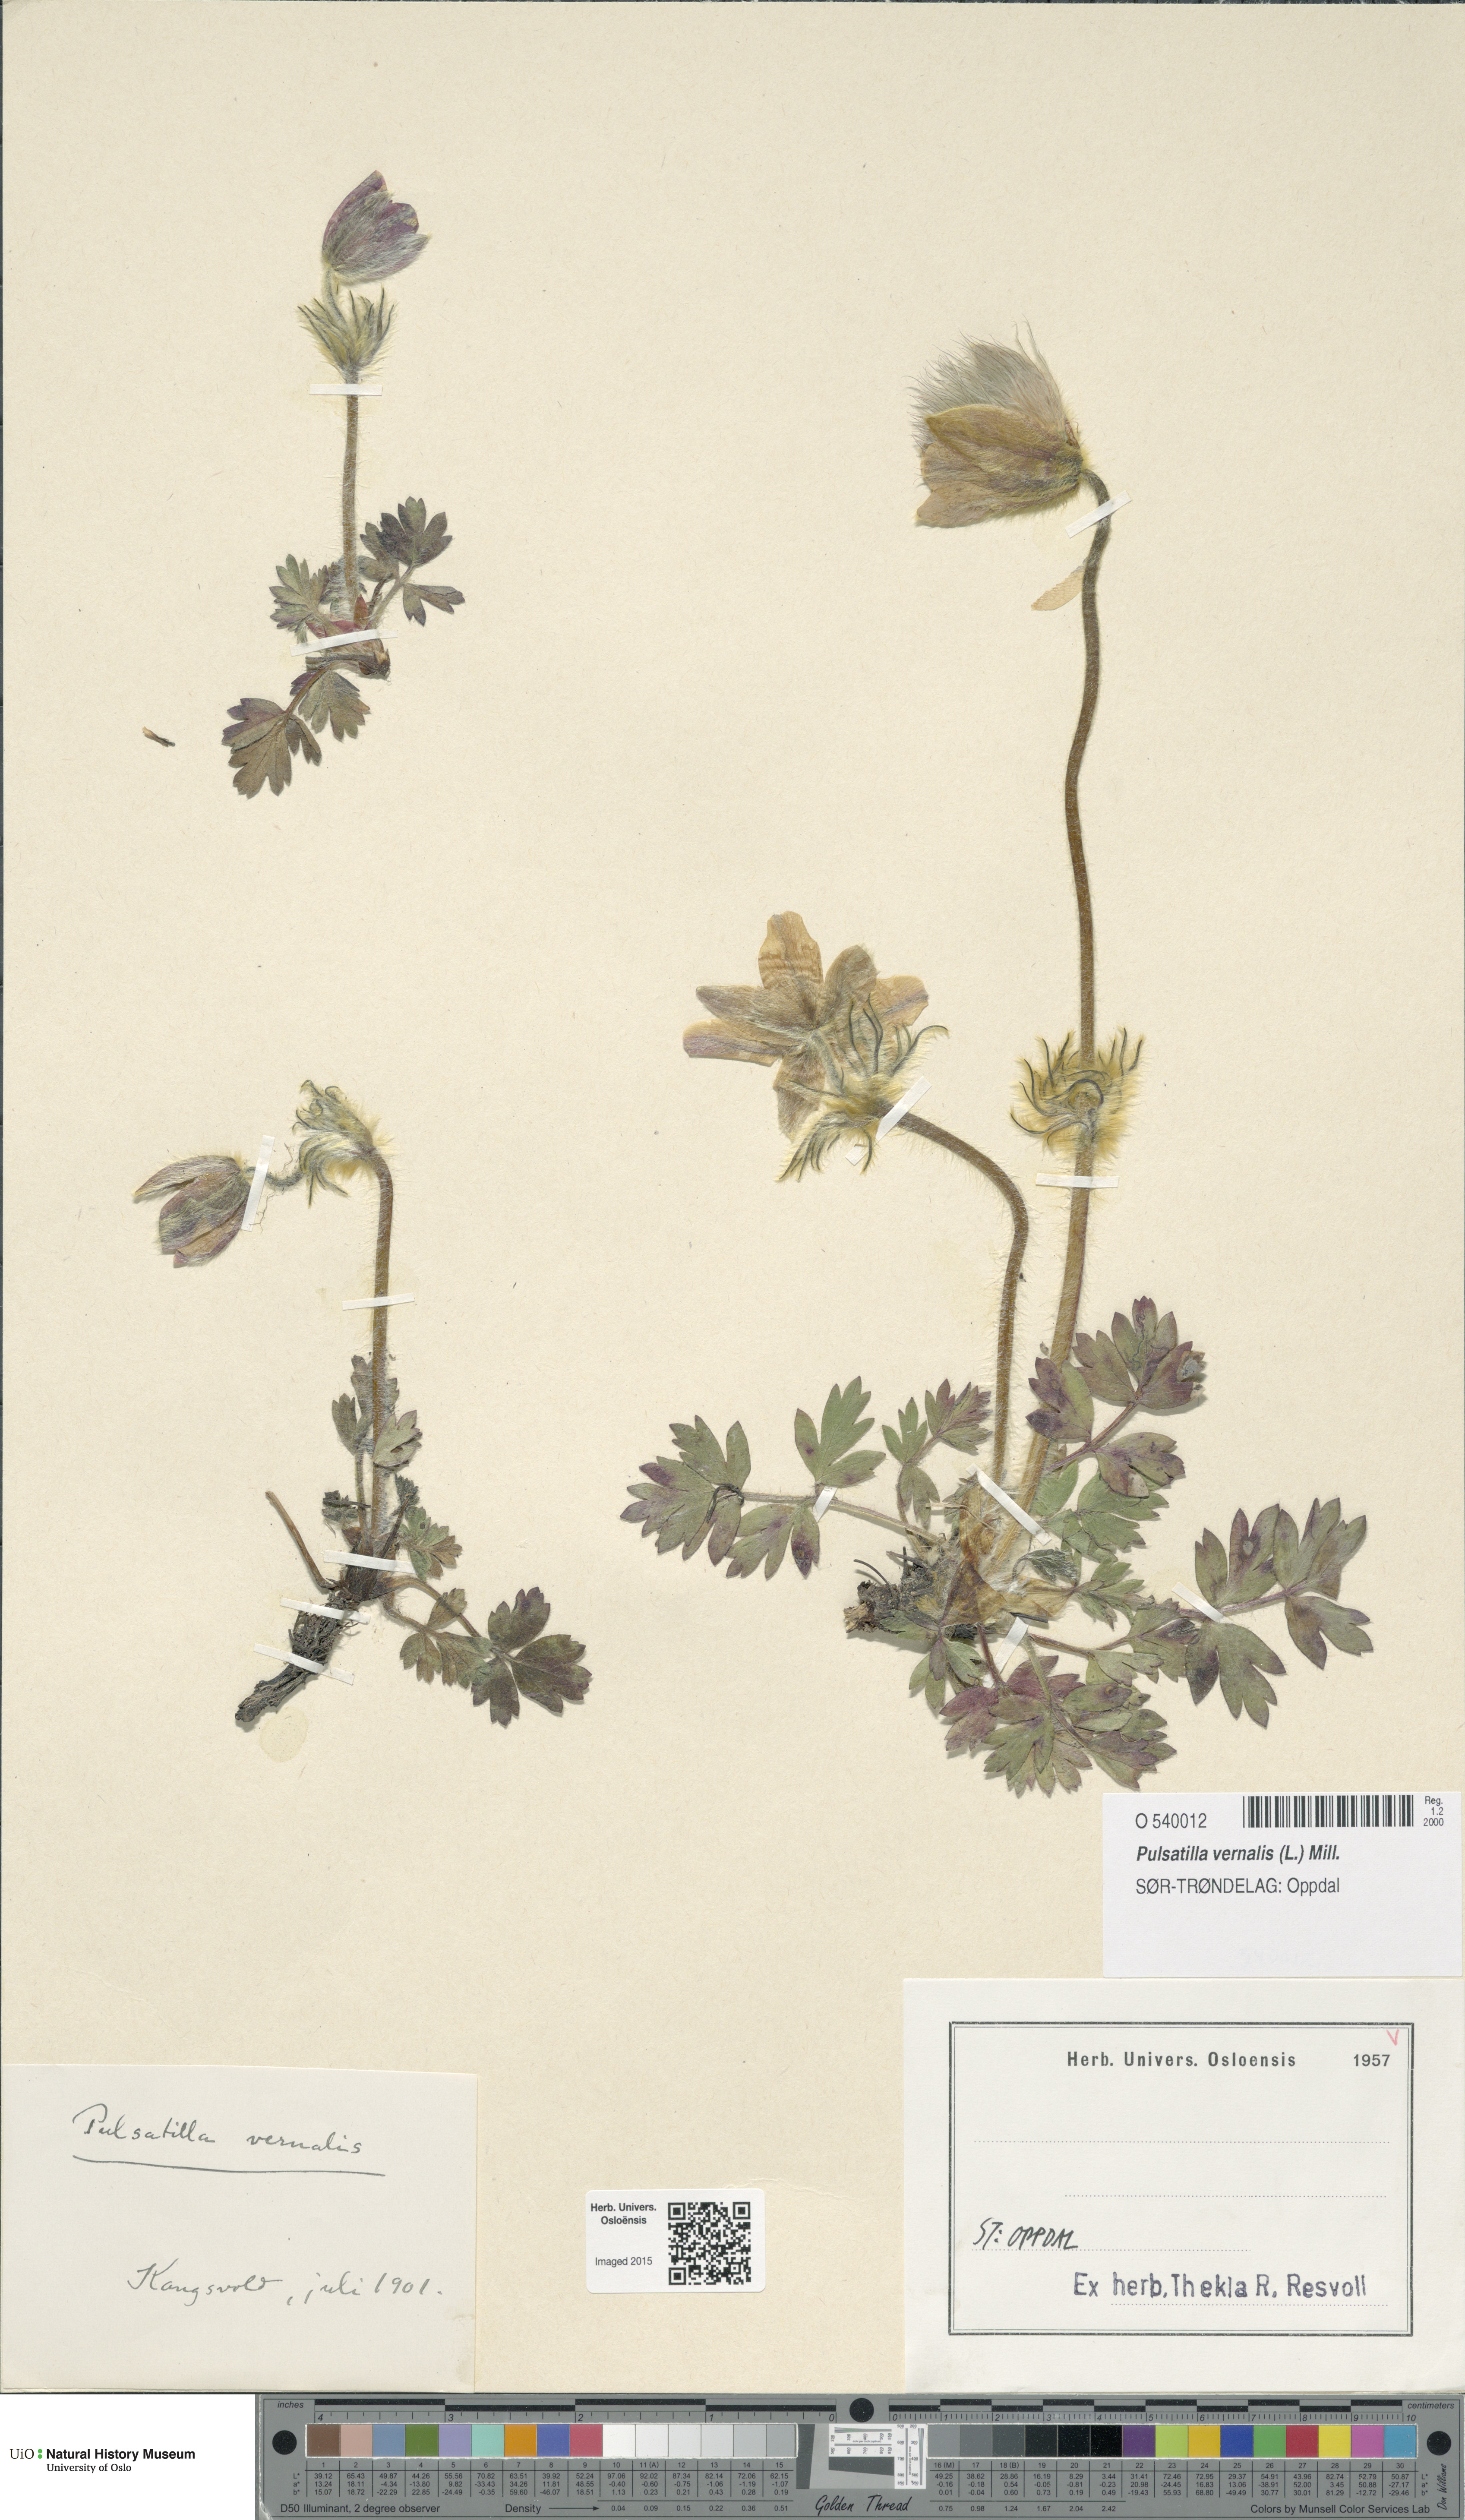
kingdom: Plantae
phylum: Tracheophyta
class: Magnoliopsida
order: Ranunculales
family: Ranunculaceae
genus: Pulsatilla
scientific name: Pulsatilla vernalis
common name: Spring pasque flower
